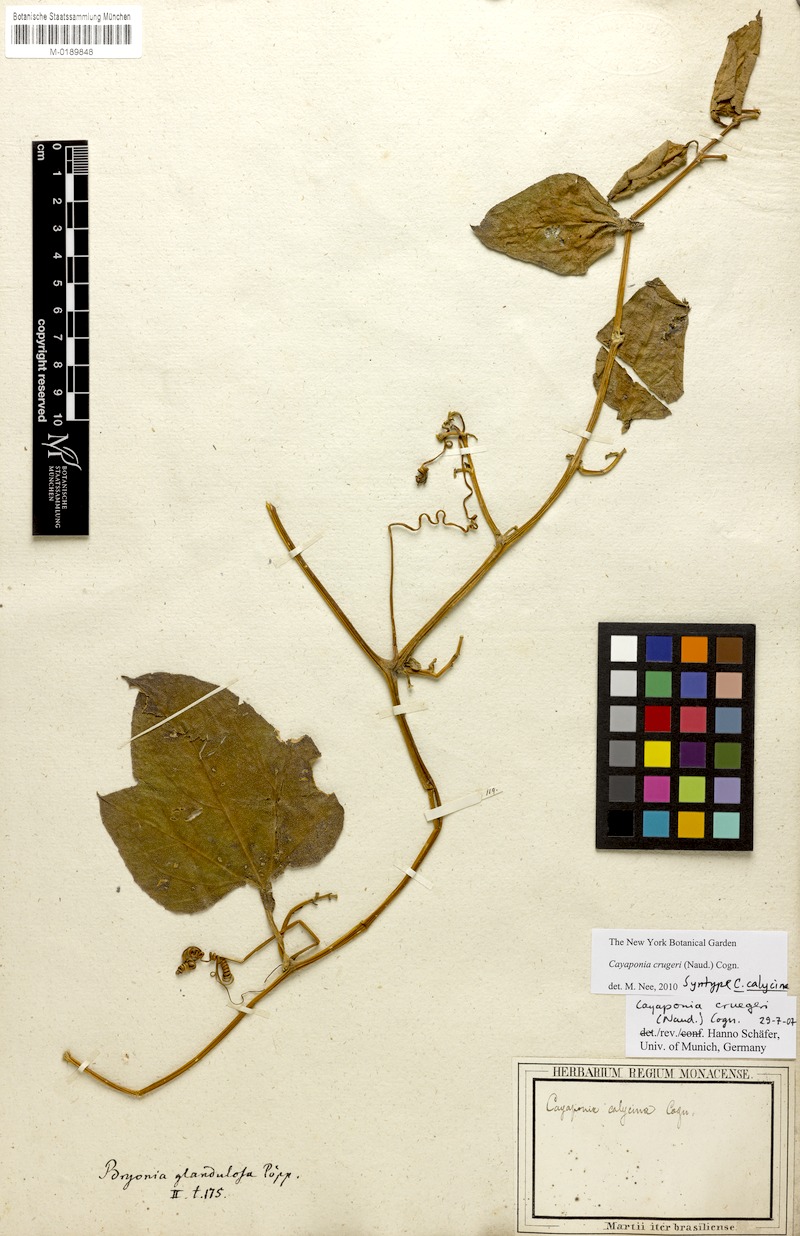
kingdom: Plantae
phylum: Tracheophyta
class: Magnoliopsida
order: Cucurbitales
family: Cucurbitaceae
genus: Cayaponia
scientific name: Cayaponia crugeri
